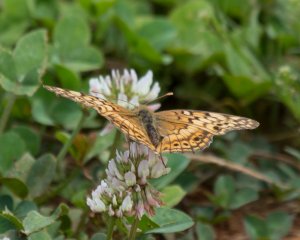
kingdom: Animalia
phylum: Arthropoda
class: Insecta
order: Lepidoptera
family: Nymphalidae
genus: Euptoieta
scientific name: Euptoieta claudia
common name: Variegated Fritillary
